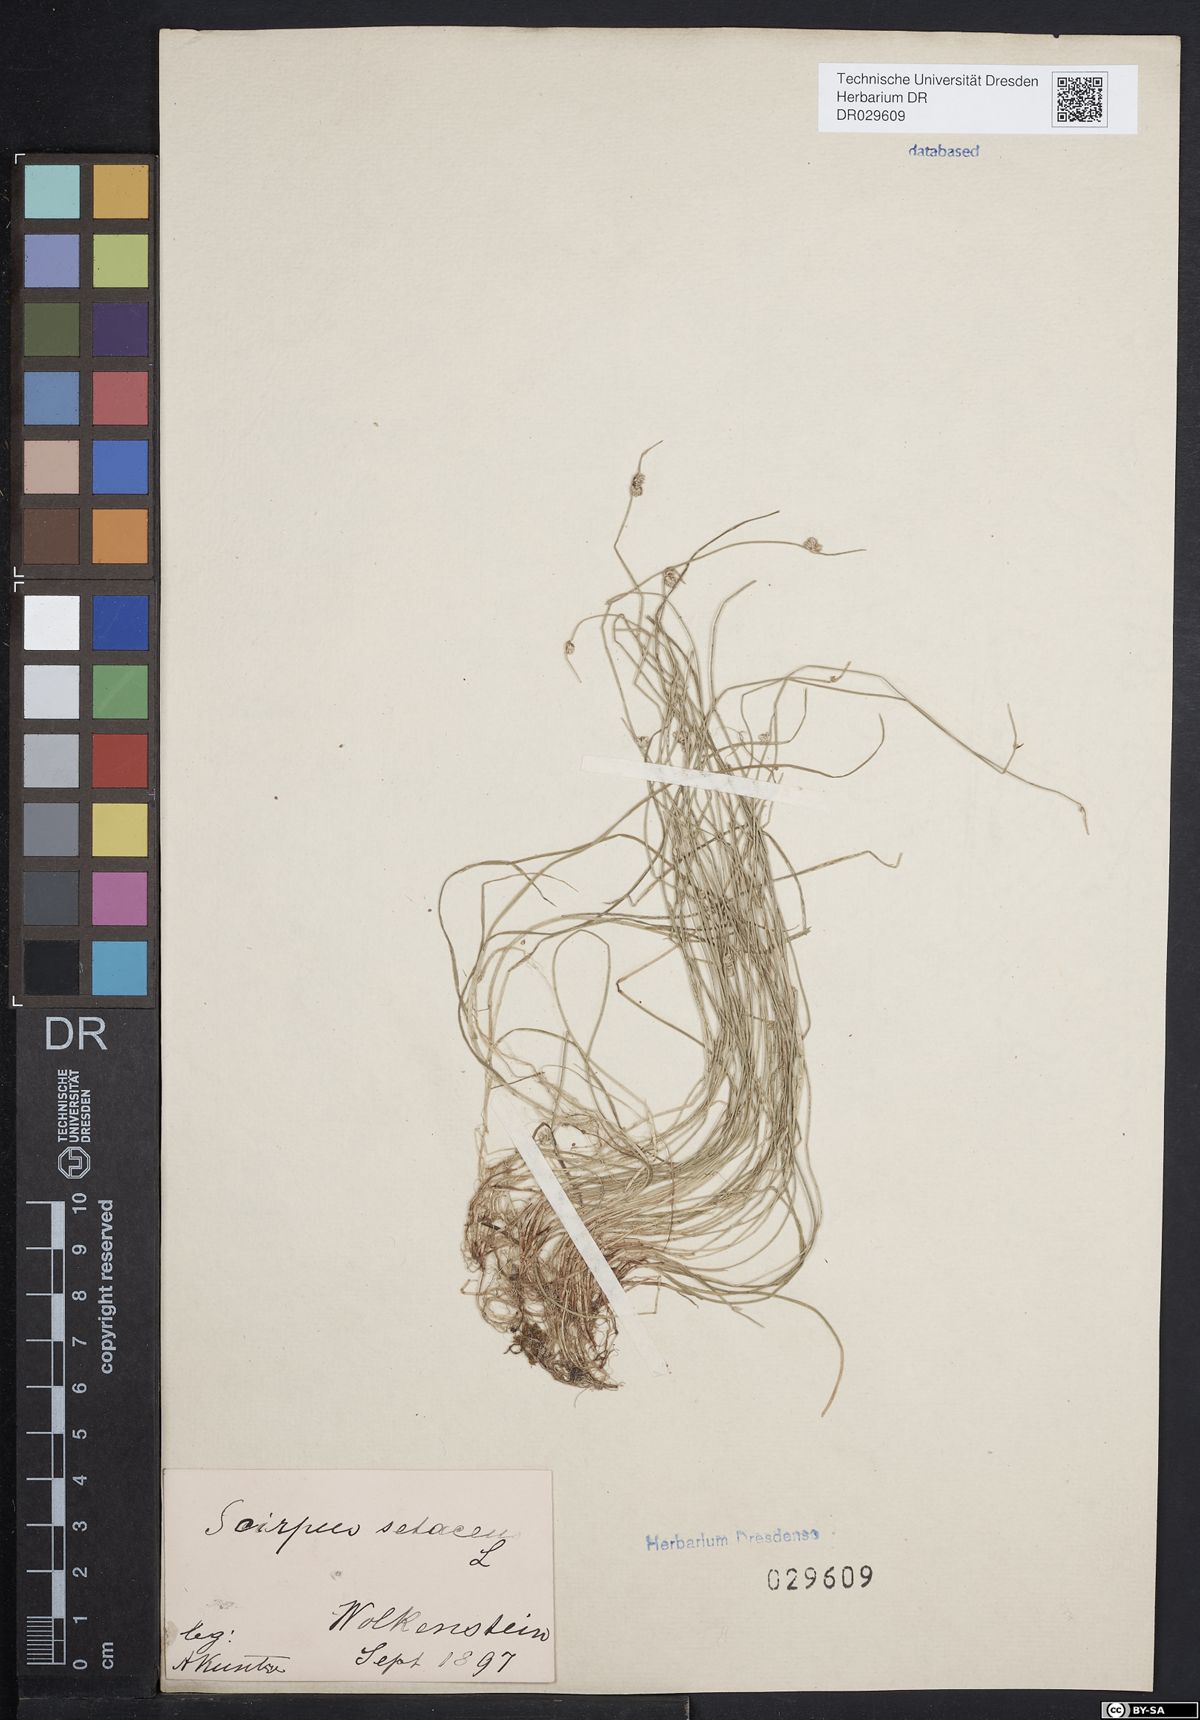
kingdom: Plantae
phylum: Tracheophyta
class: Liliopsida
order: Poales
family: Cyperaceae
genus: Isolepis
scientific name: Isolepis setacea
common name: Bristle club-rush
